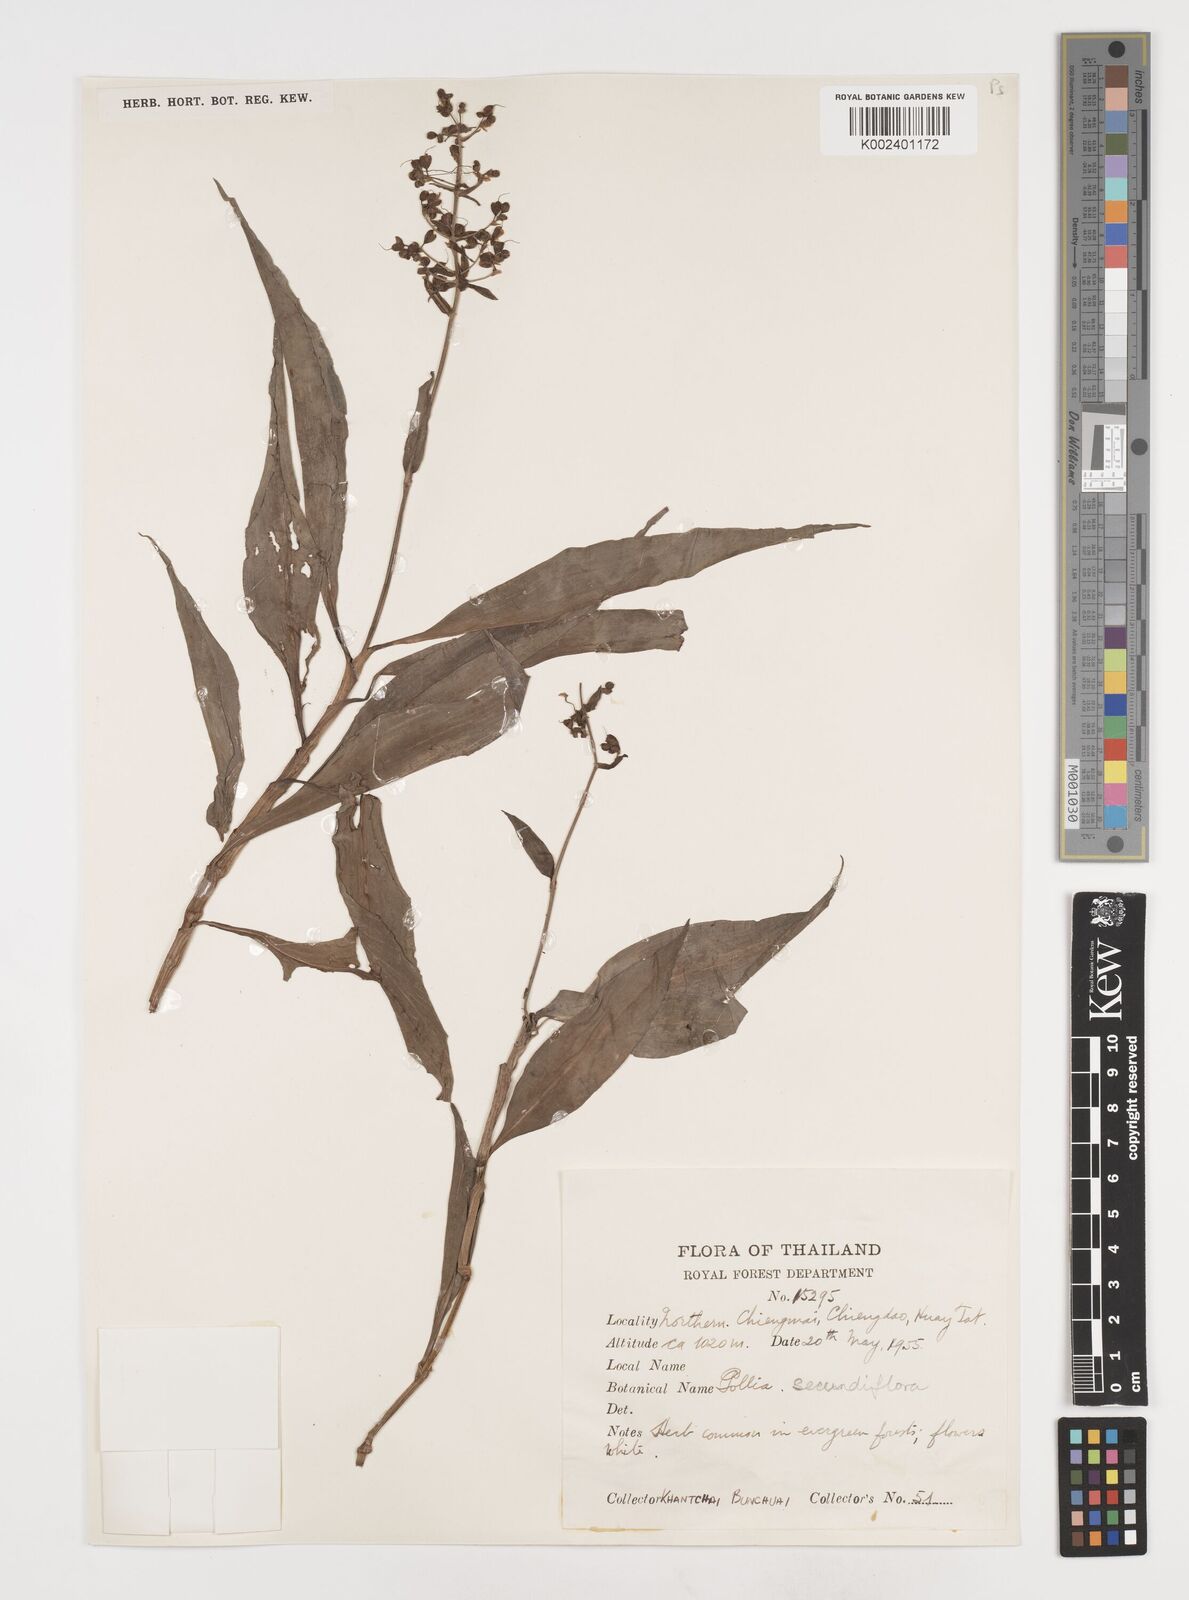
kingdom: Plantae
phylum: Tracheophyta
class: Liliopsida
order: Commelinales
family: Commelinaceae
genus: Pollia
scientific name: Pollia secundiflora
